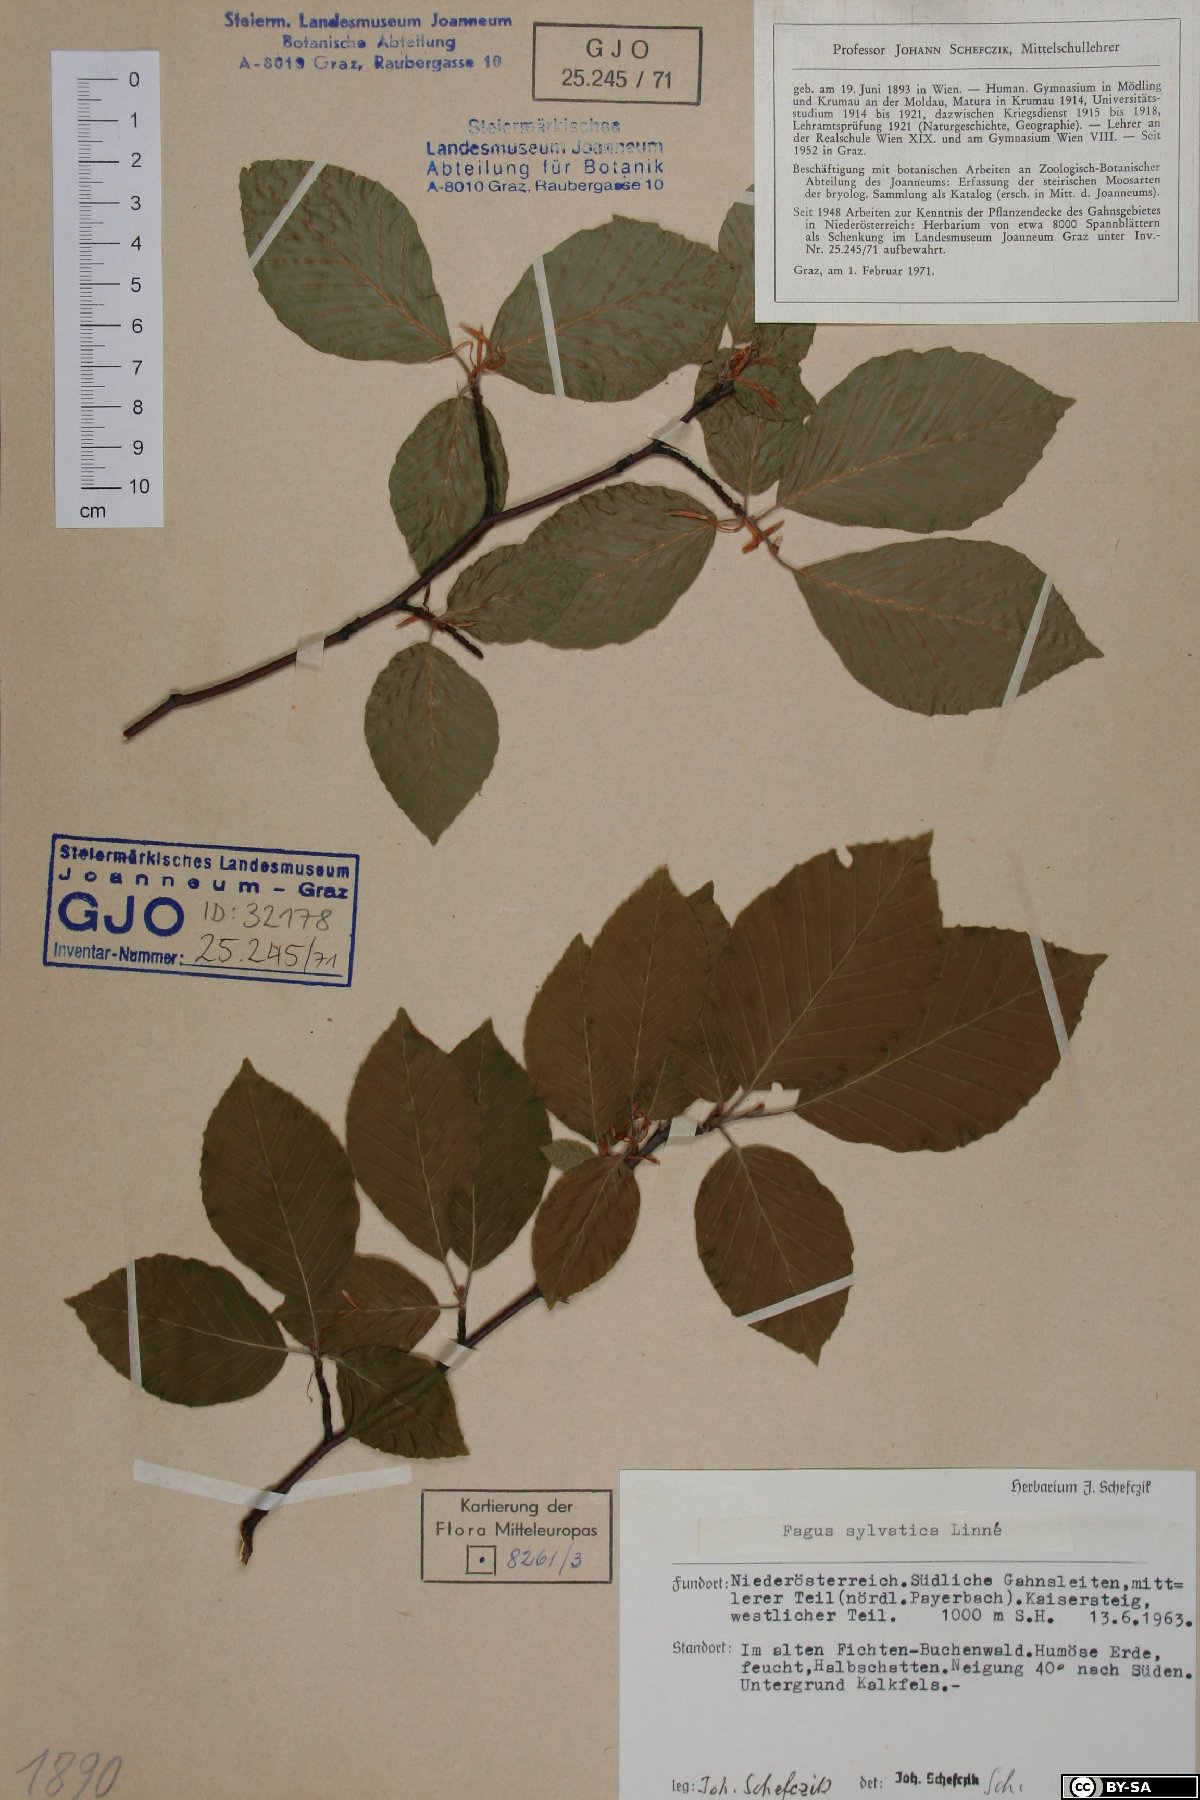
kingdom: Plantae
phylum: Tracheophyta
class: Magnoliopsida
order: Fagales
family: Fagaceae
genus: Fagus
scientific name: Fagus sylvatica
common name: Beech
